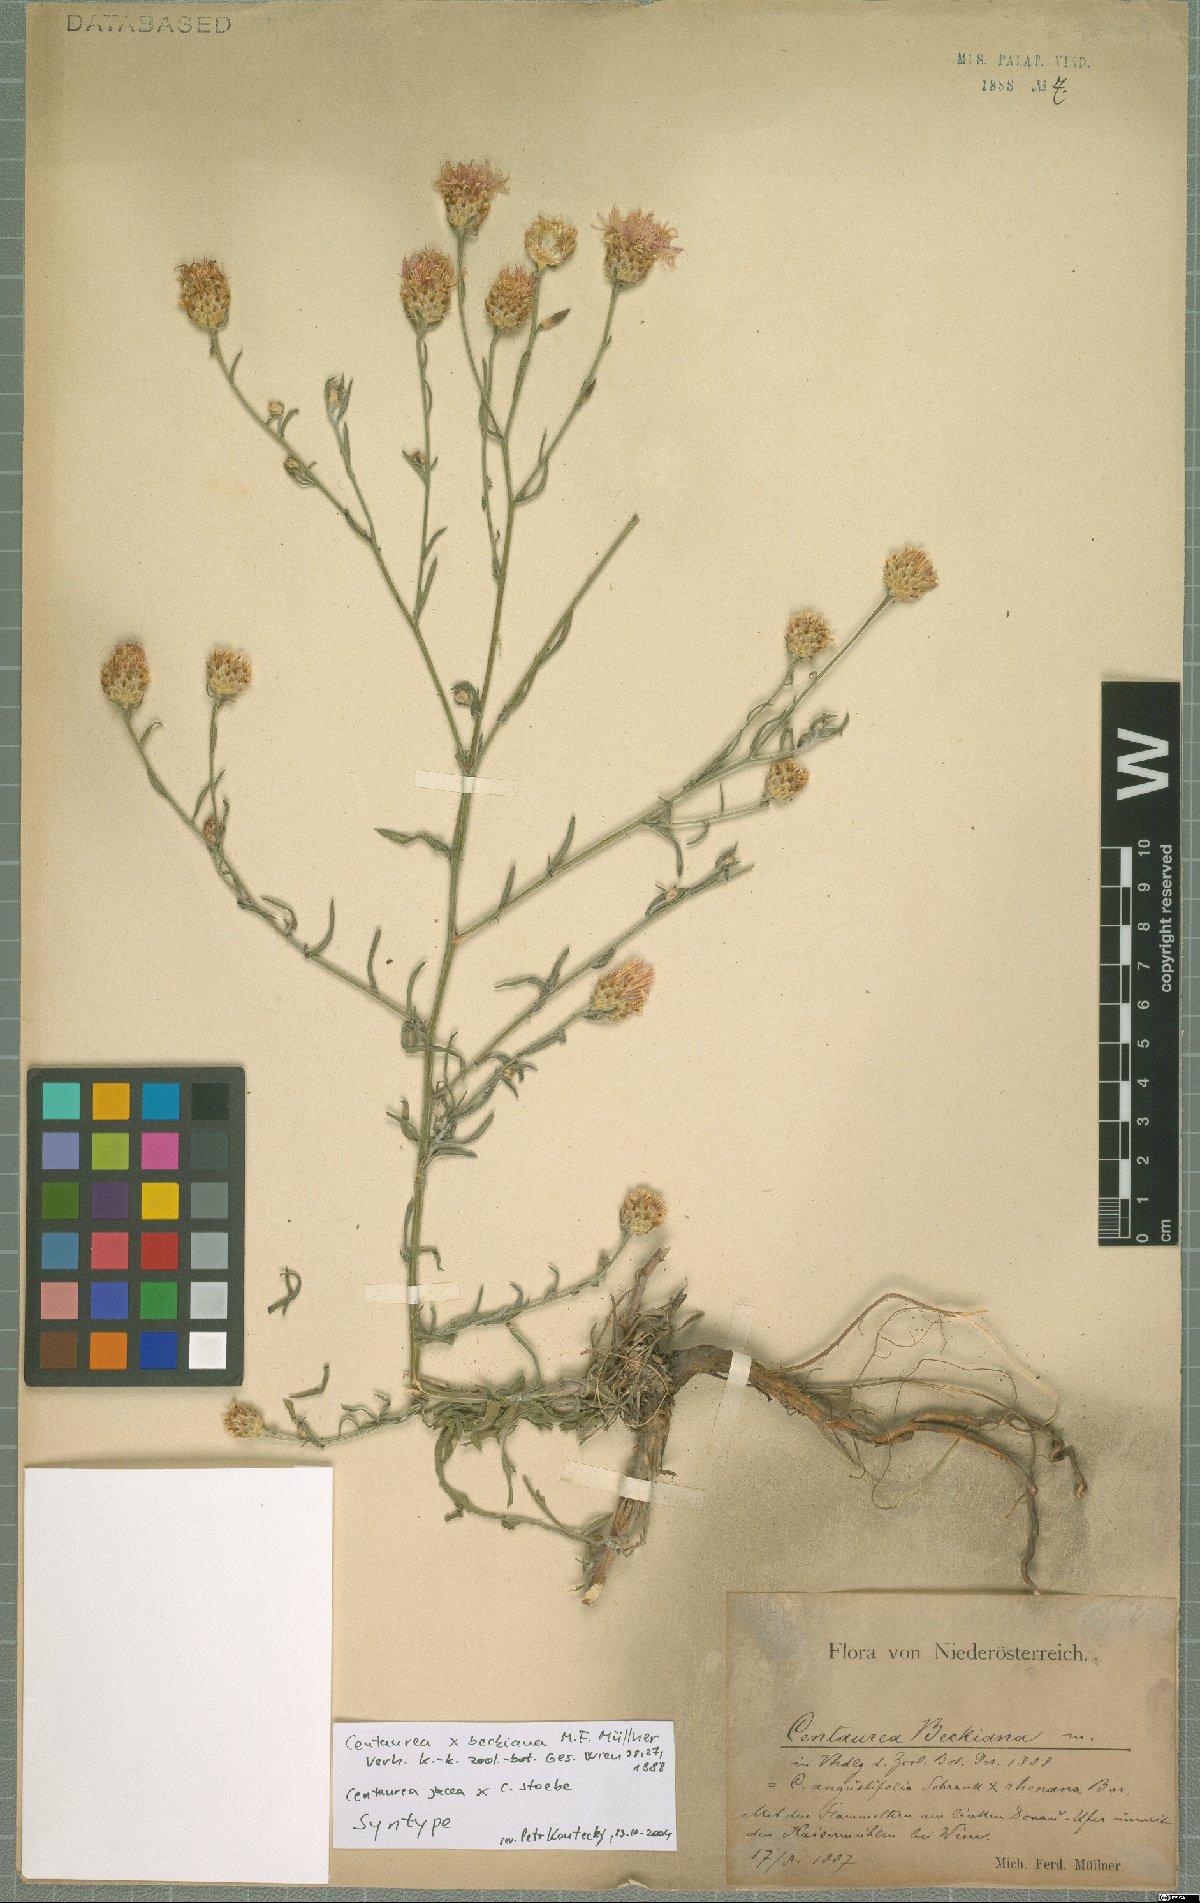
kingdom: Plantae
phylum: Tracheophyta
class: Magnoliopsida
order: Asterales
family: Asteraceae
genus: Centaurea
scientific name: Centaurea beckiana
